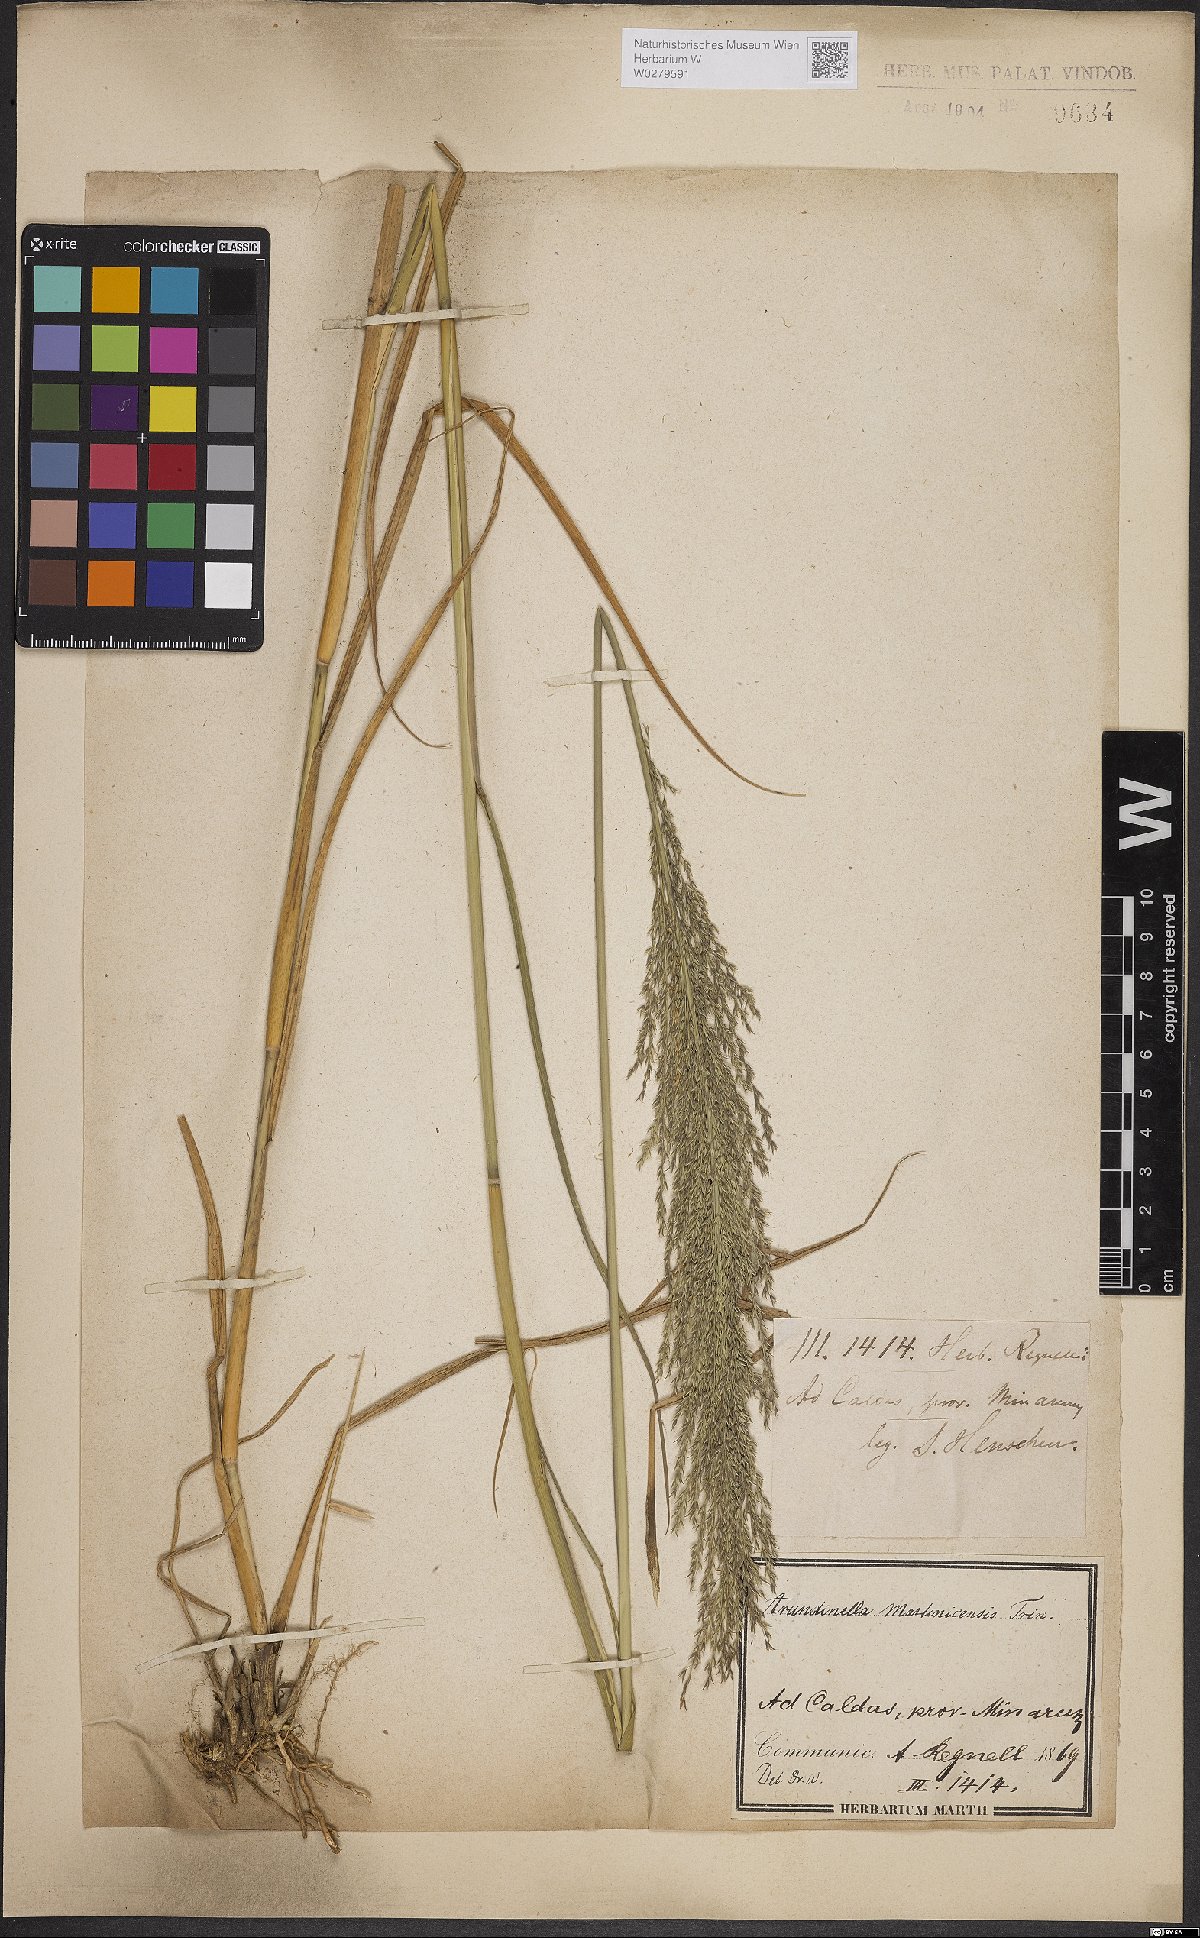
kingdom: Plantae
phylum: Tracheophyta
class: Liliopsida
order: Poales
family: Poaceae
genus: Arundinella
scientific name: Arundinella hispida
